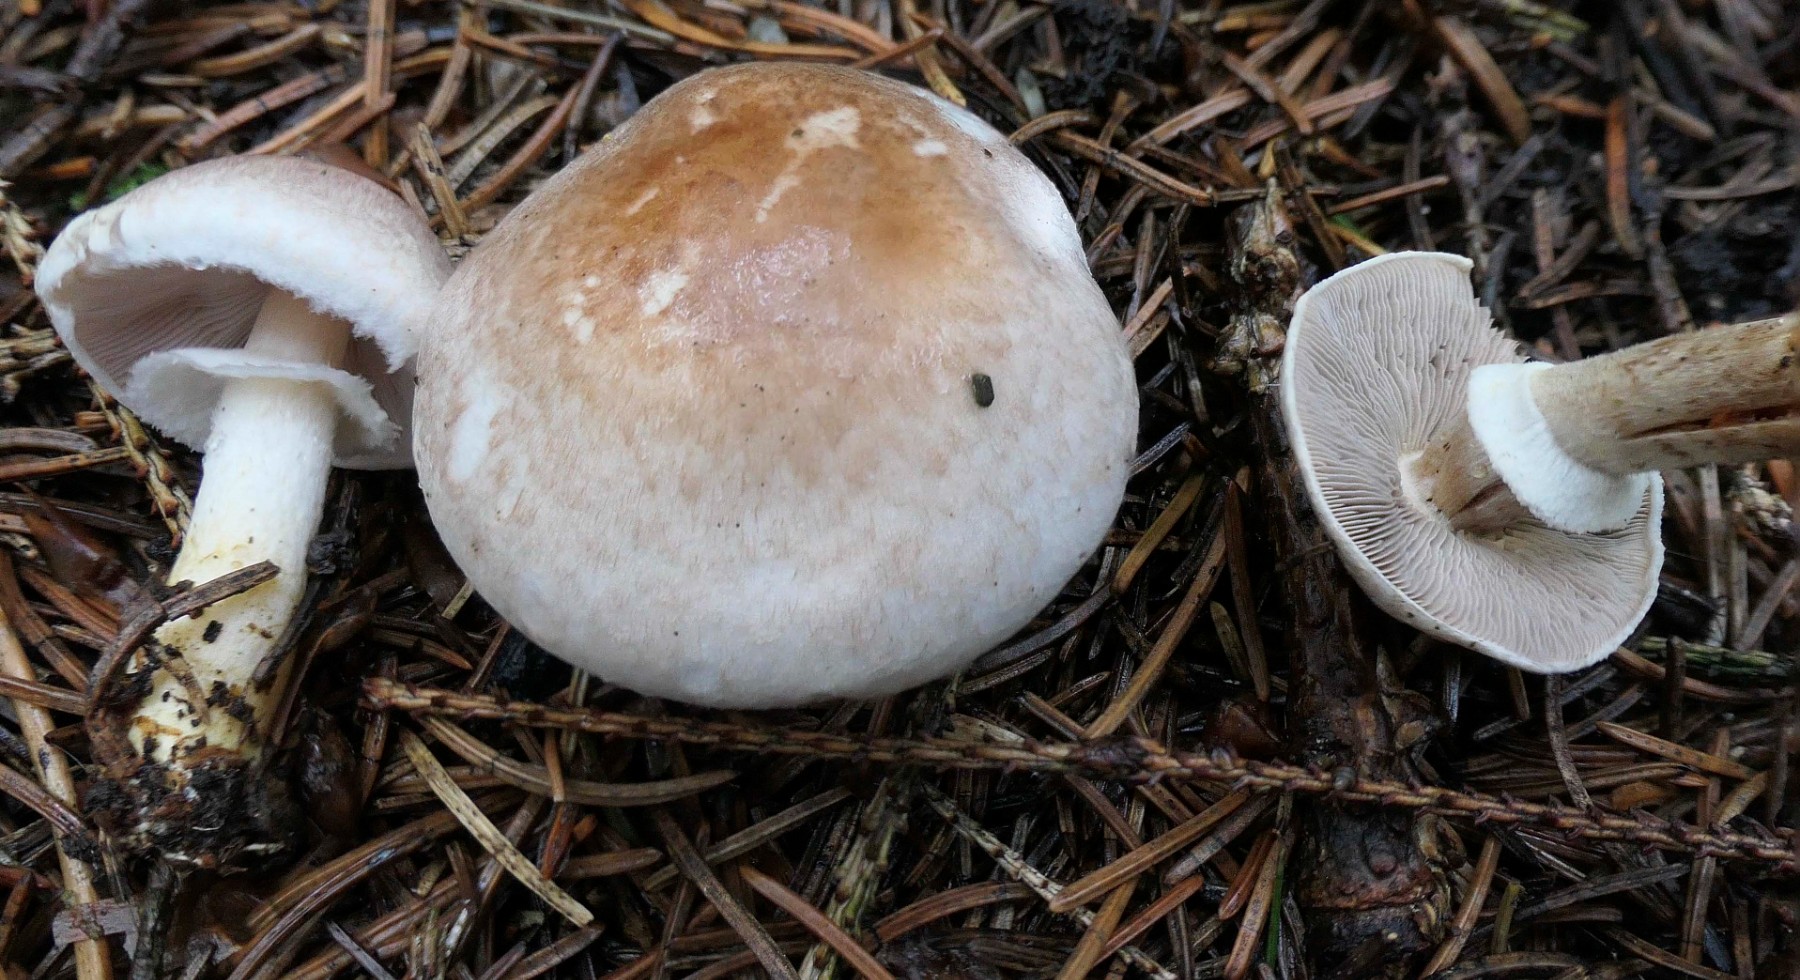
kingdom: Fungi
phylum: Basidiomycota
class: Agaricomycetes
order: Agaricales
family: Agaricaceae
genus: Agaricus
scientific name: Agaricus dulcidulus
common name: blegrød champignon
